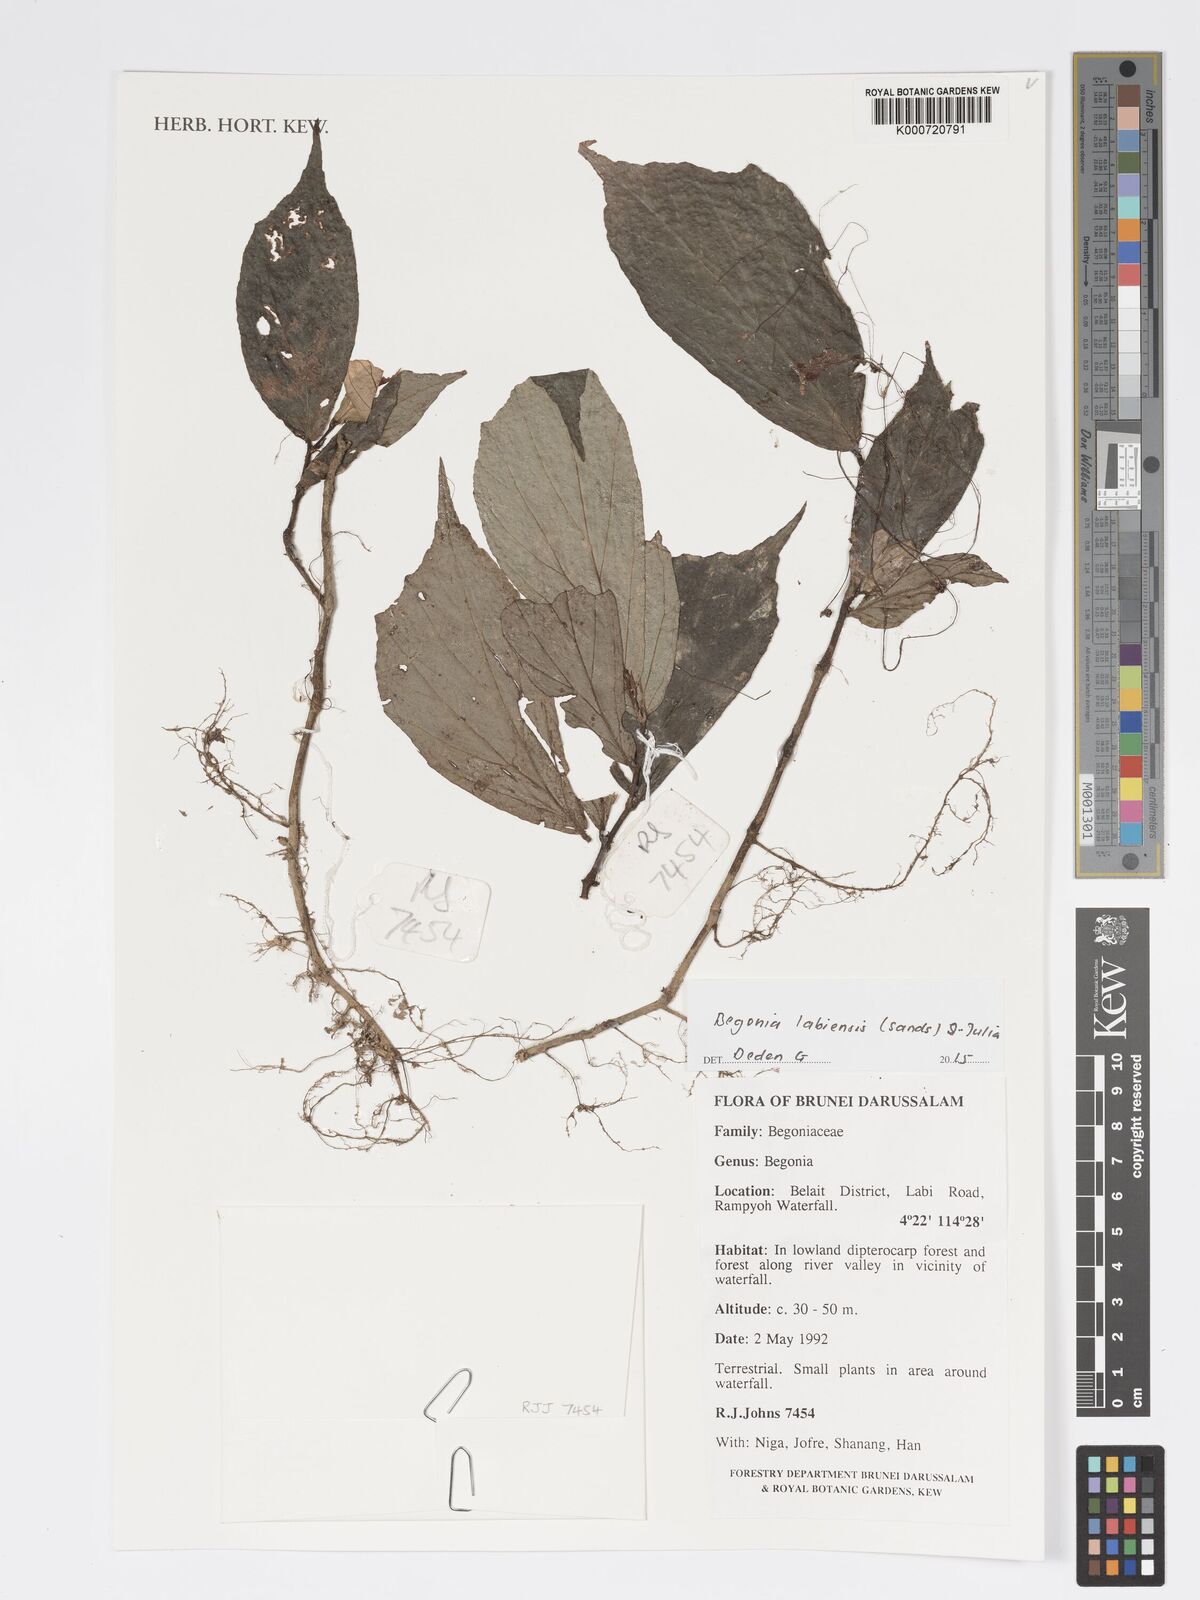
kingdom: Plantae
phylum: Tracheophyta
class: Magnoliopsida
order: Cucurbitales
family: Begoniaceae
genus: Begonia
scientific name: Begonia labiensis
